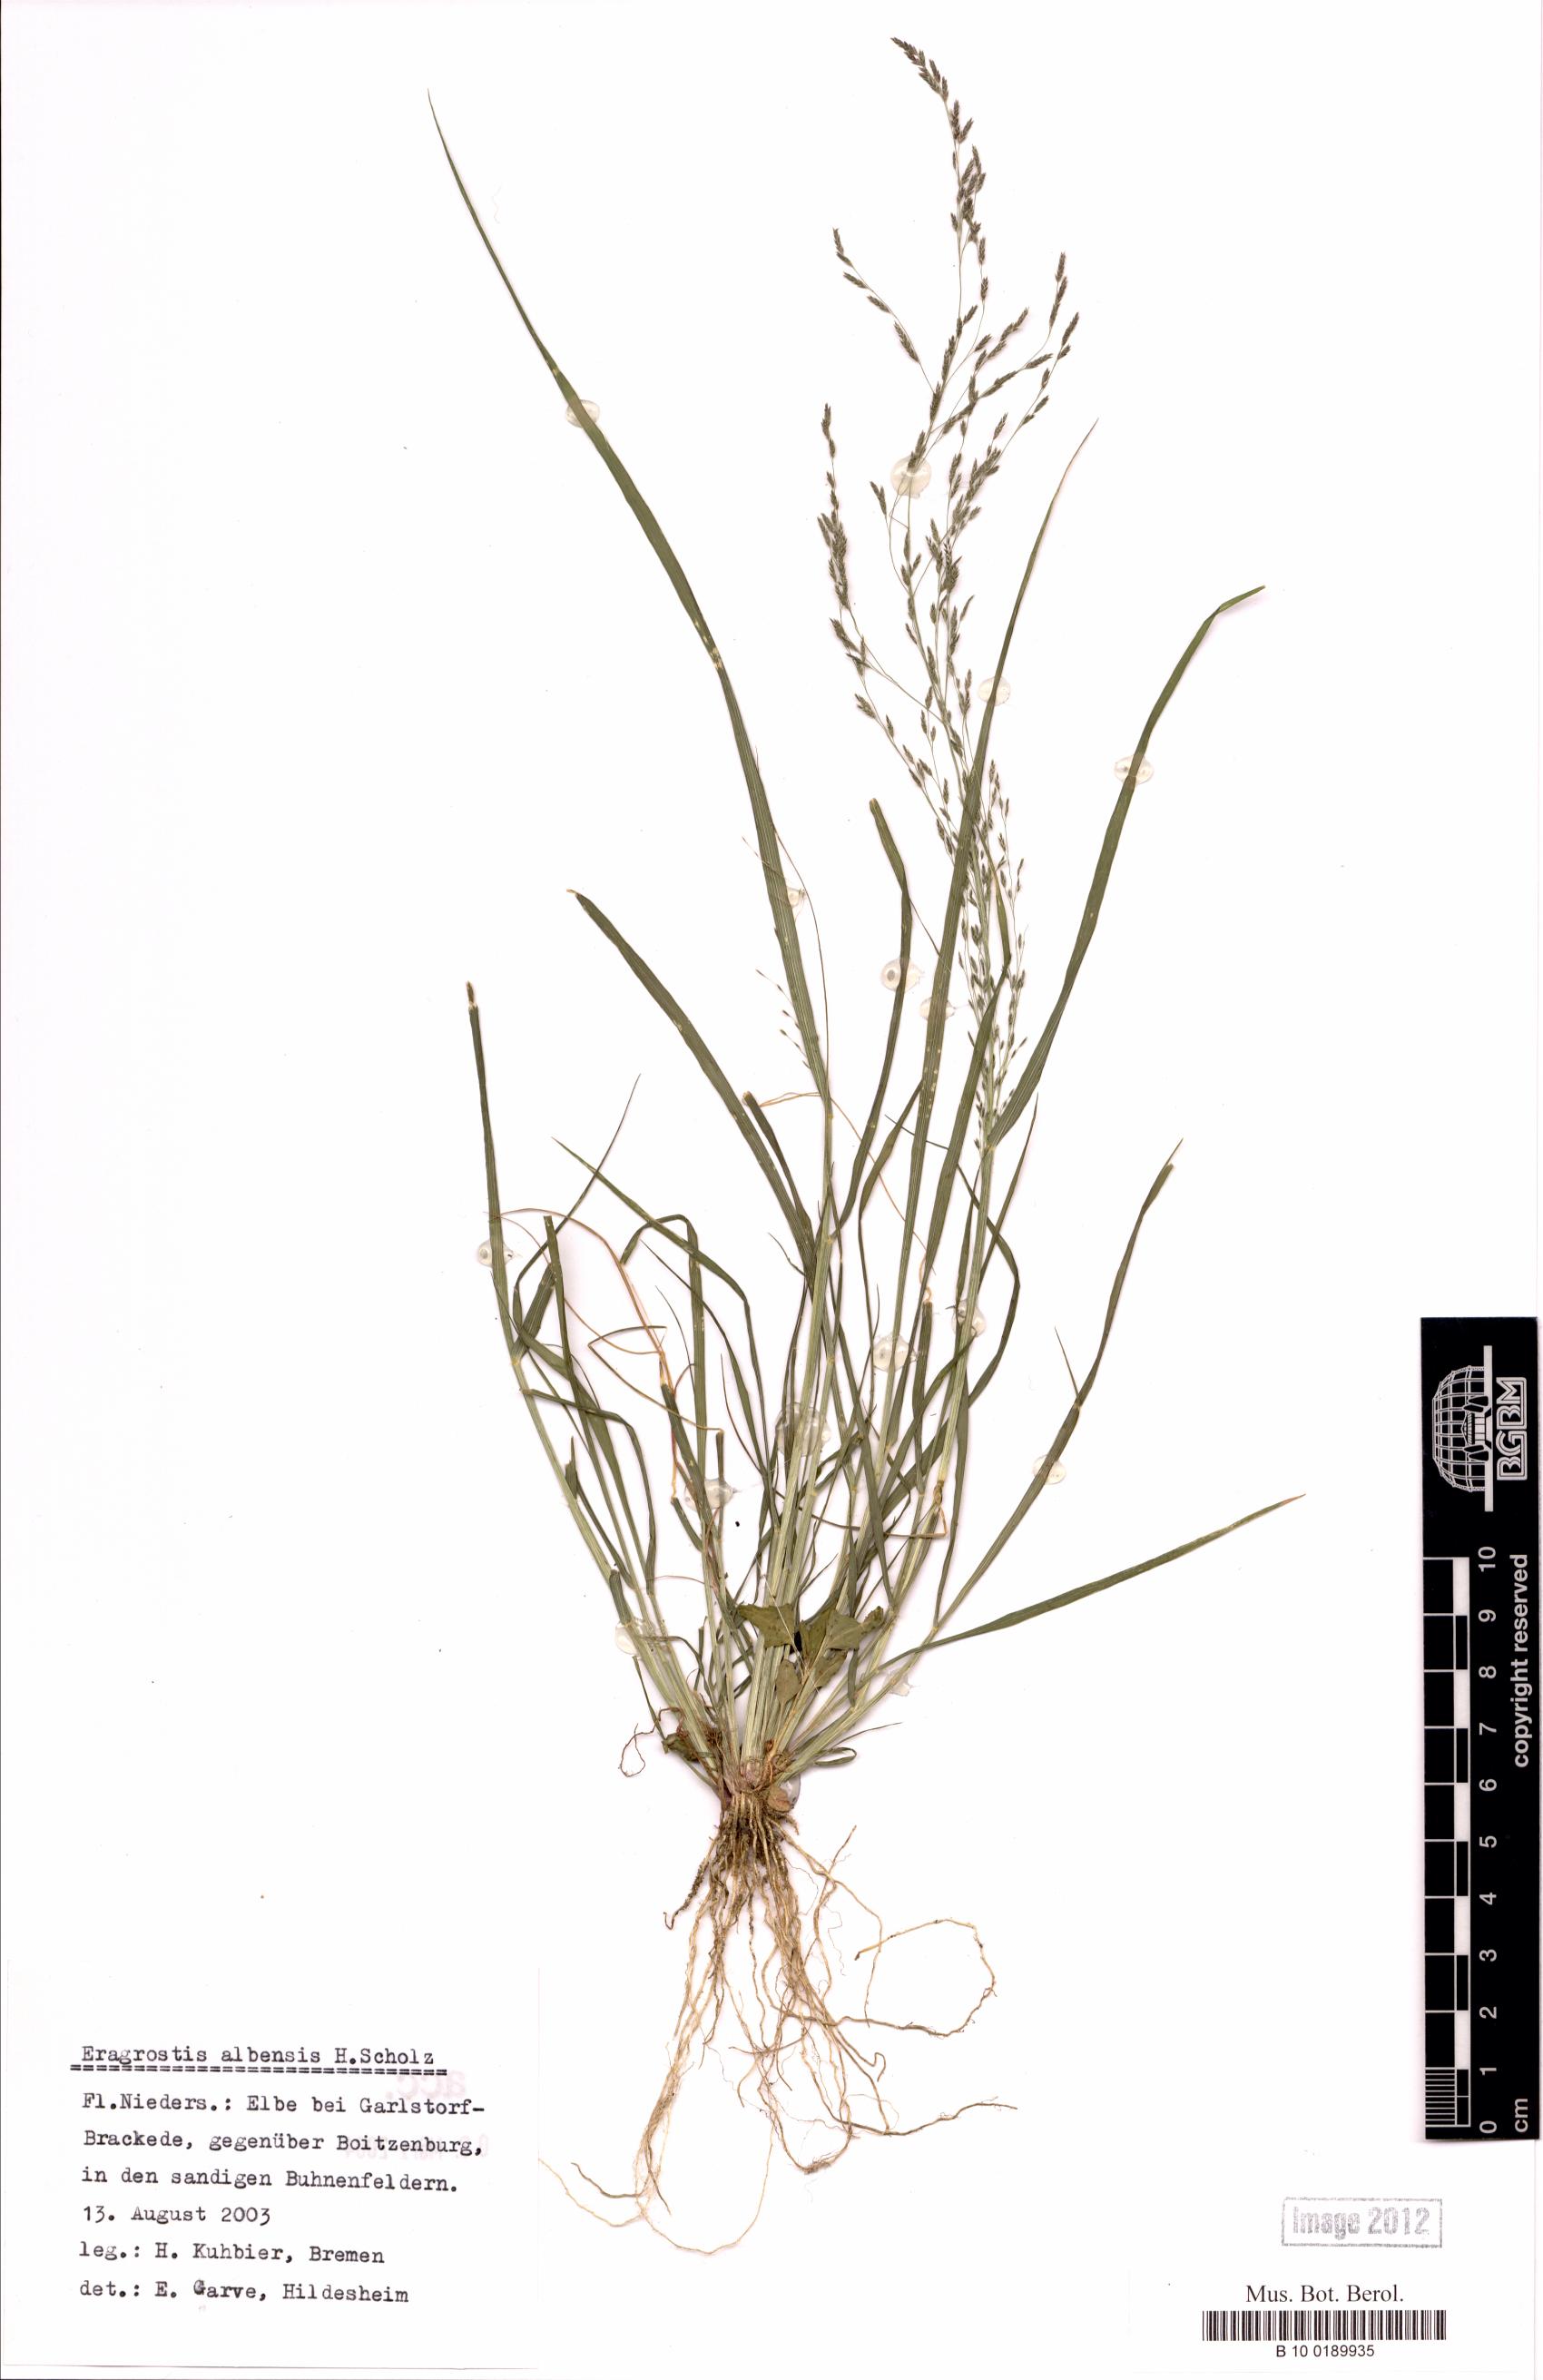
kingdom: Plantae
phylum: Tracheophyta
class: Liliopsida
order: Poales
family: Poaceae
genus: Eragrostis
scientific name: Eragrostis pilosa
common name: Indian lovegrass
